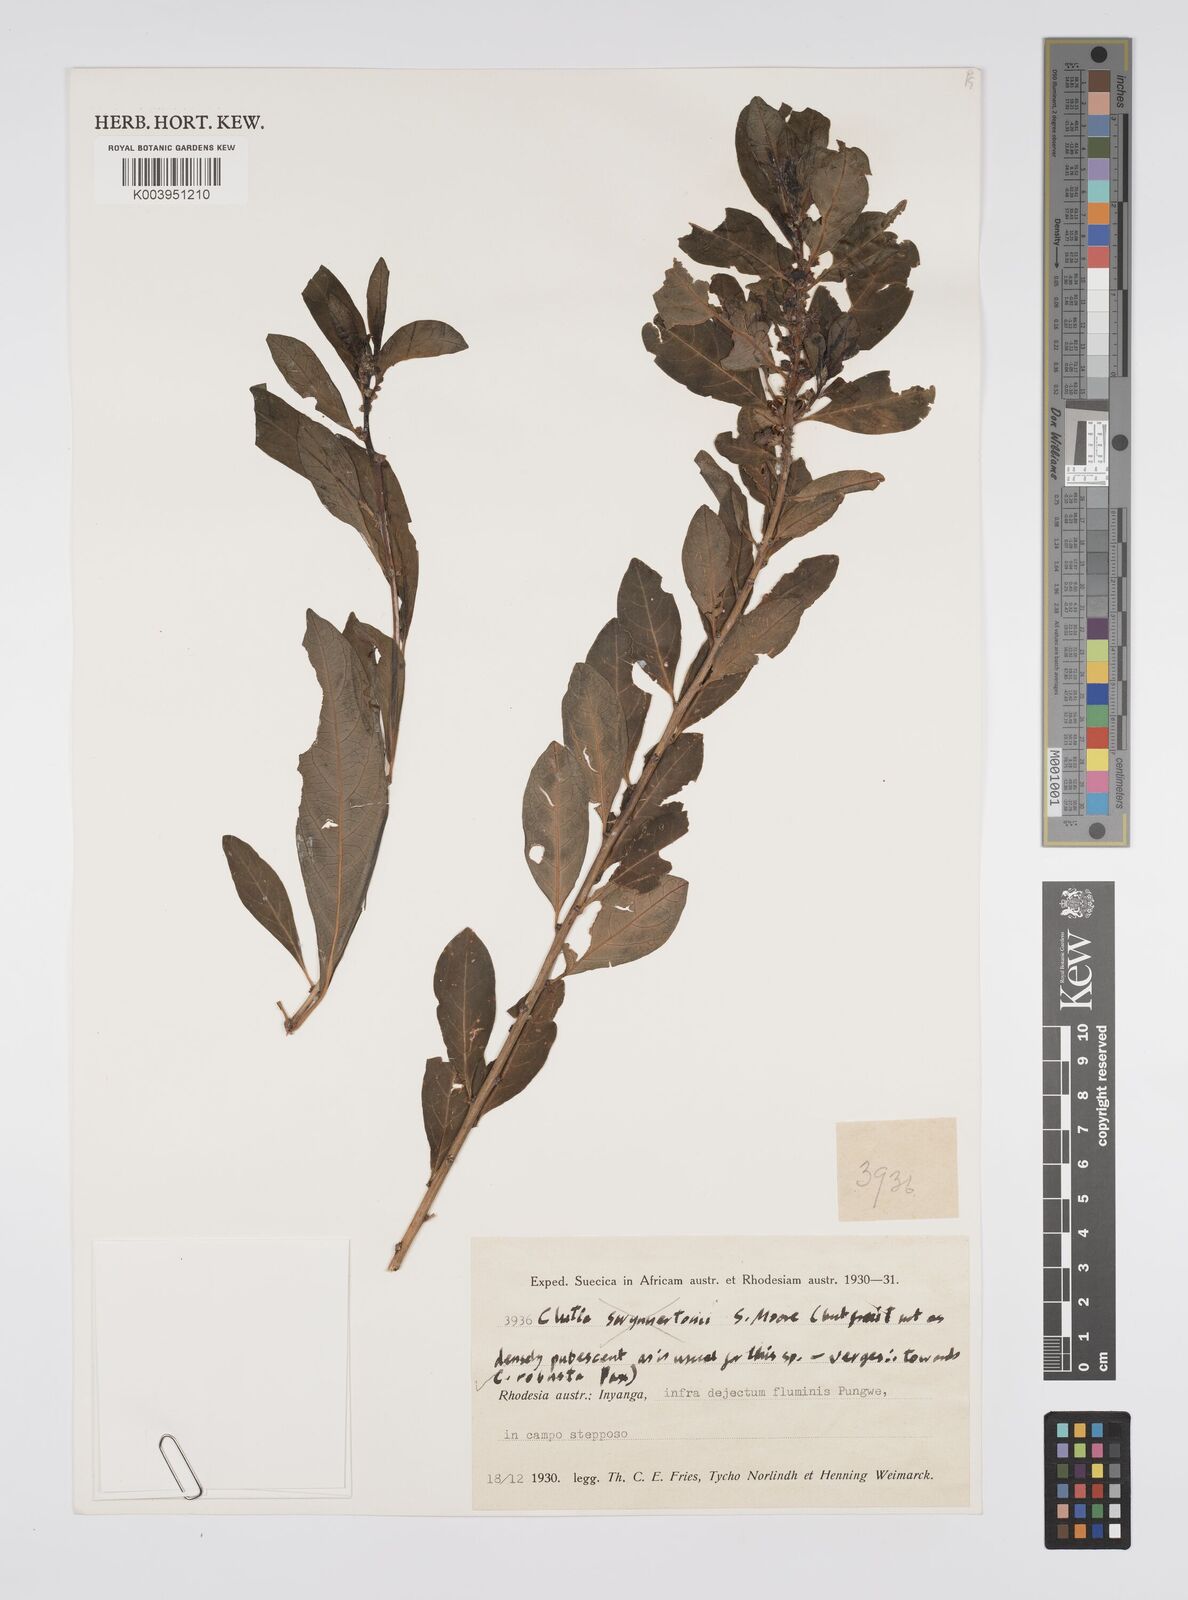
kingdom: Plantae
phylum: Tracheophyta
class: Magnoliopsida
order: Malpighiales
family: Peraceae
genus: Clutia
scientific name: Clutia kilimandscharica
